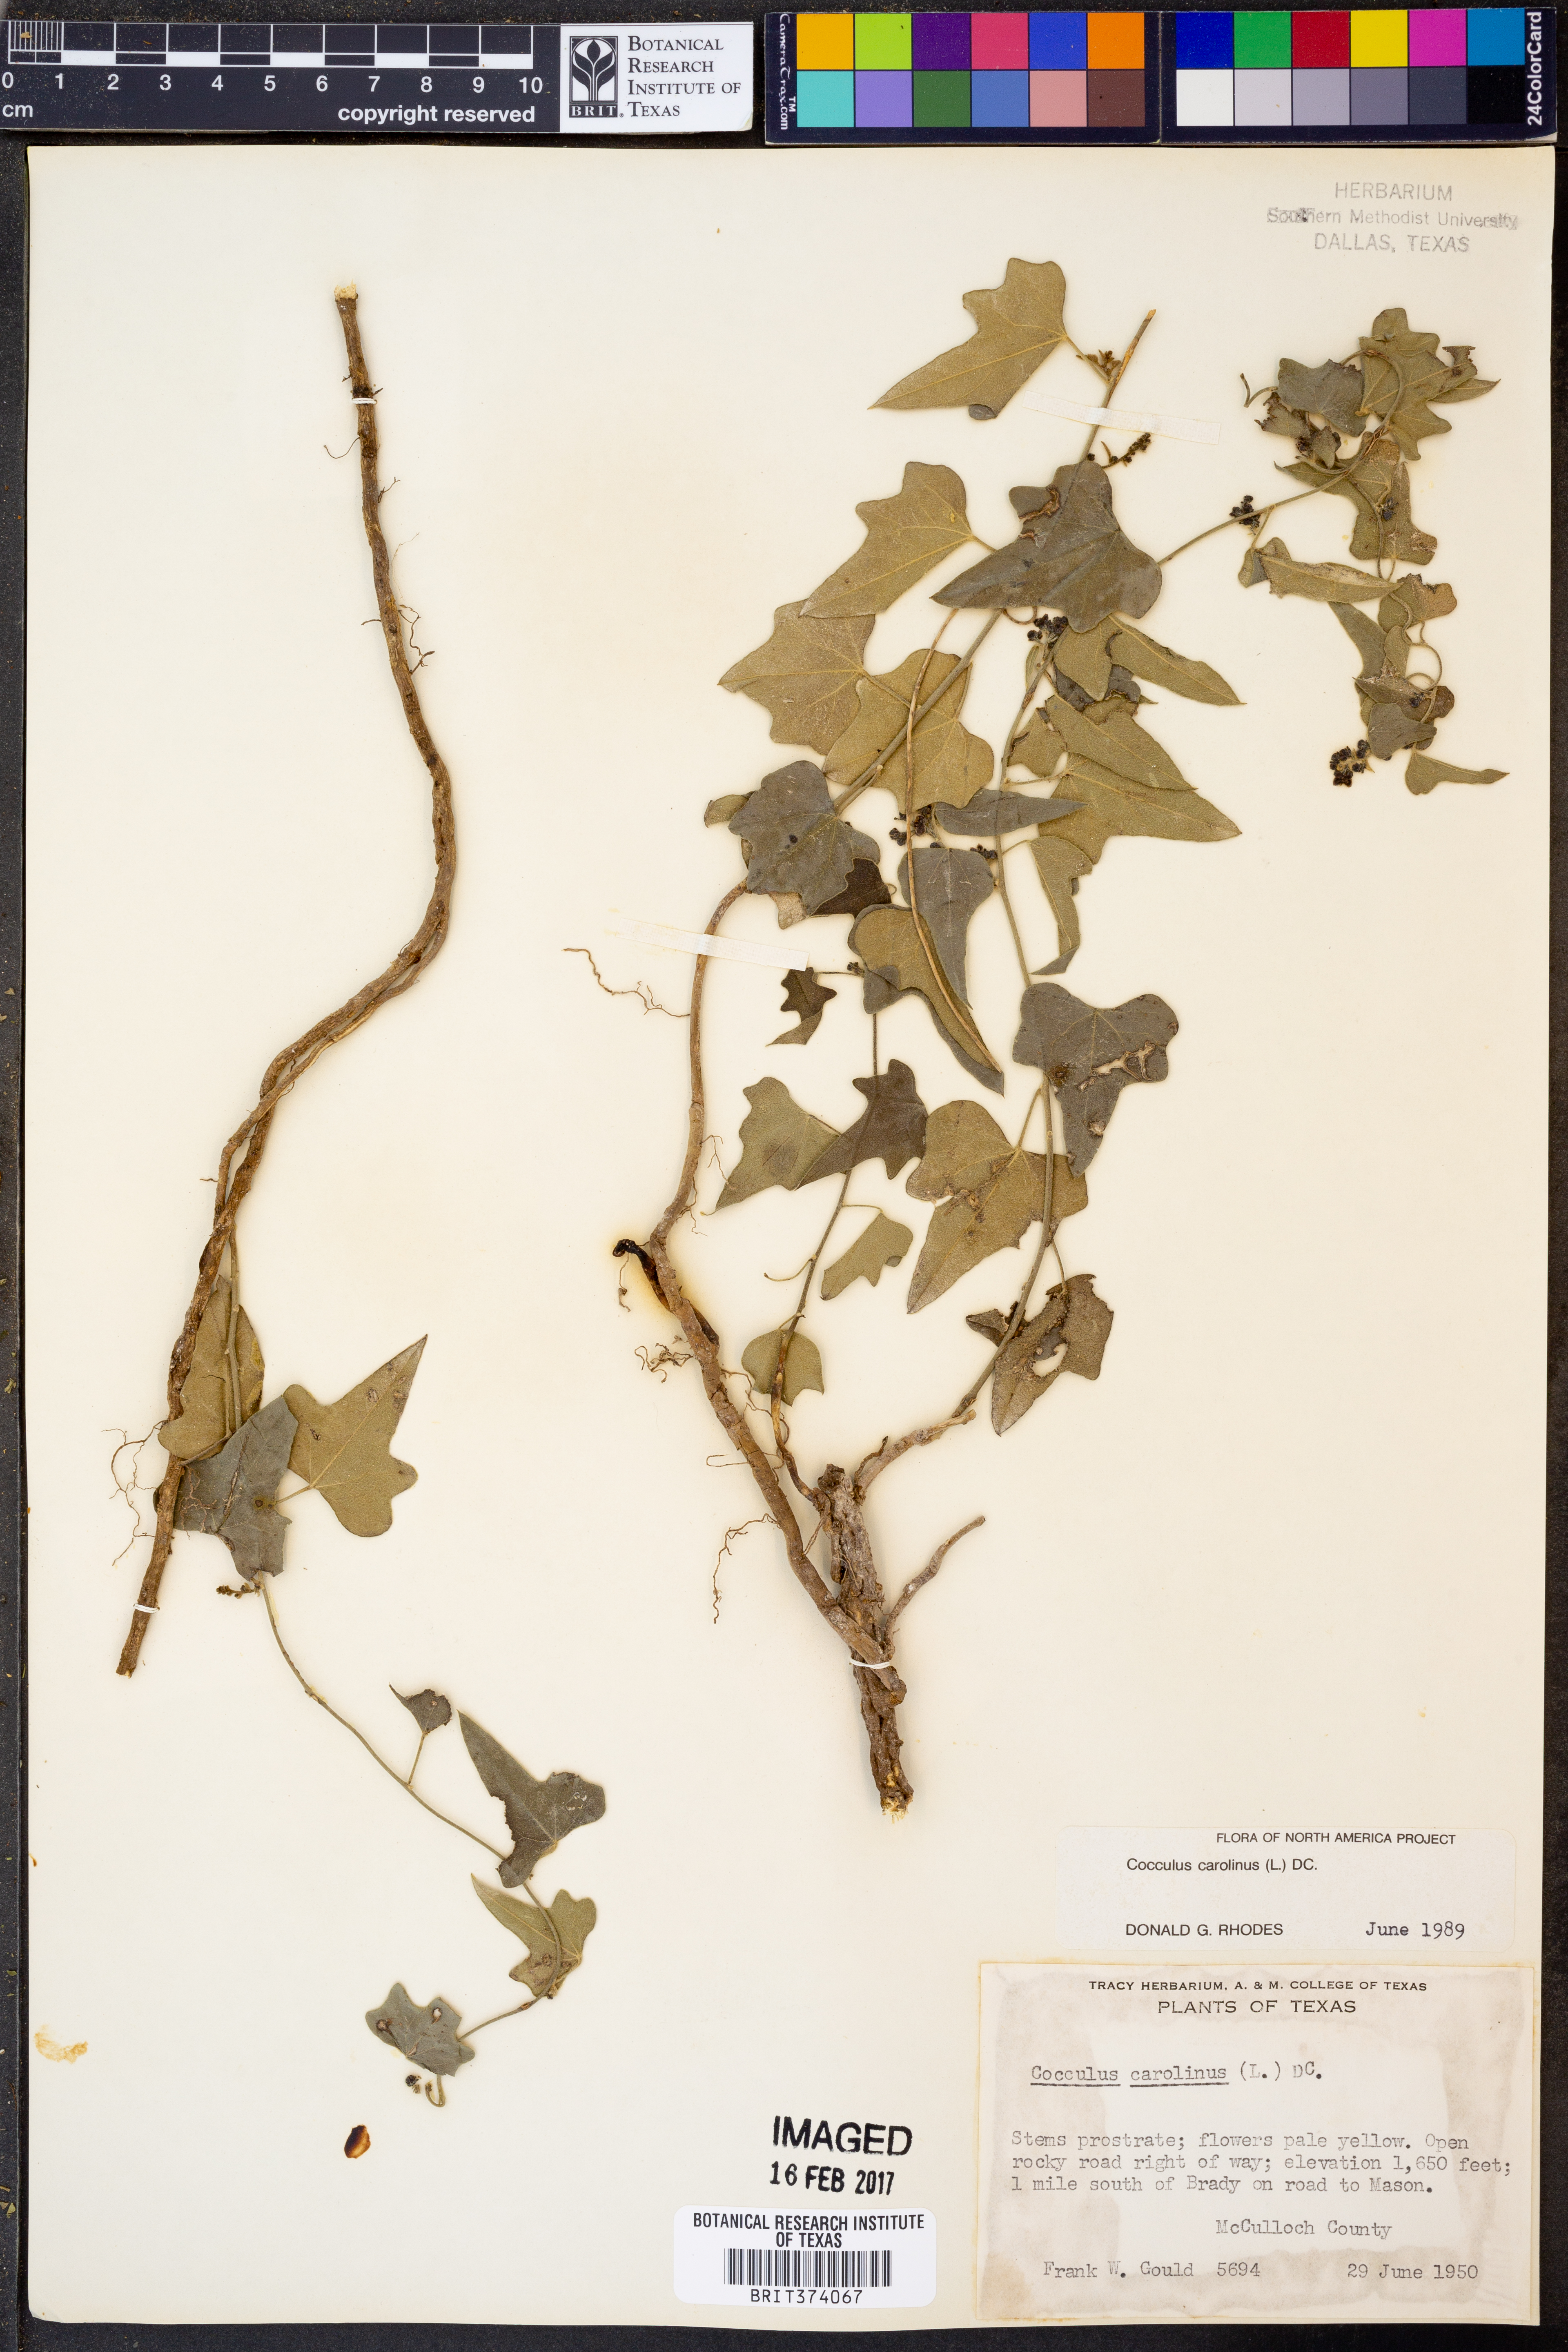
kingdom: Plantae
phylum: Tracheophyta
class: Magnoliopsida
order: Ranunculales
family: Menispermaceae
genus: Cocculus
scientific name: Cocculus carolinus
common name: Carolina moonseed
